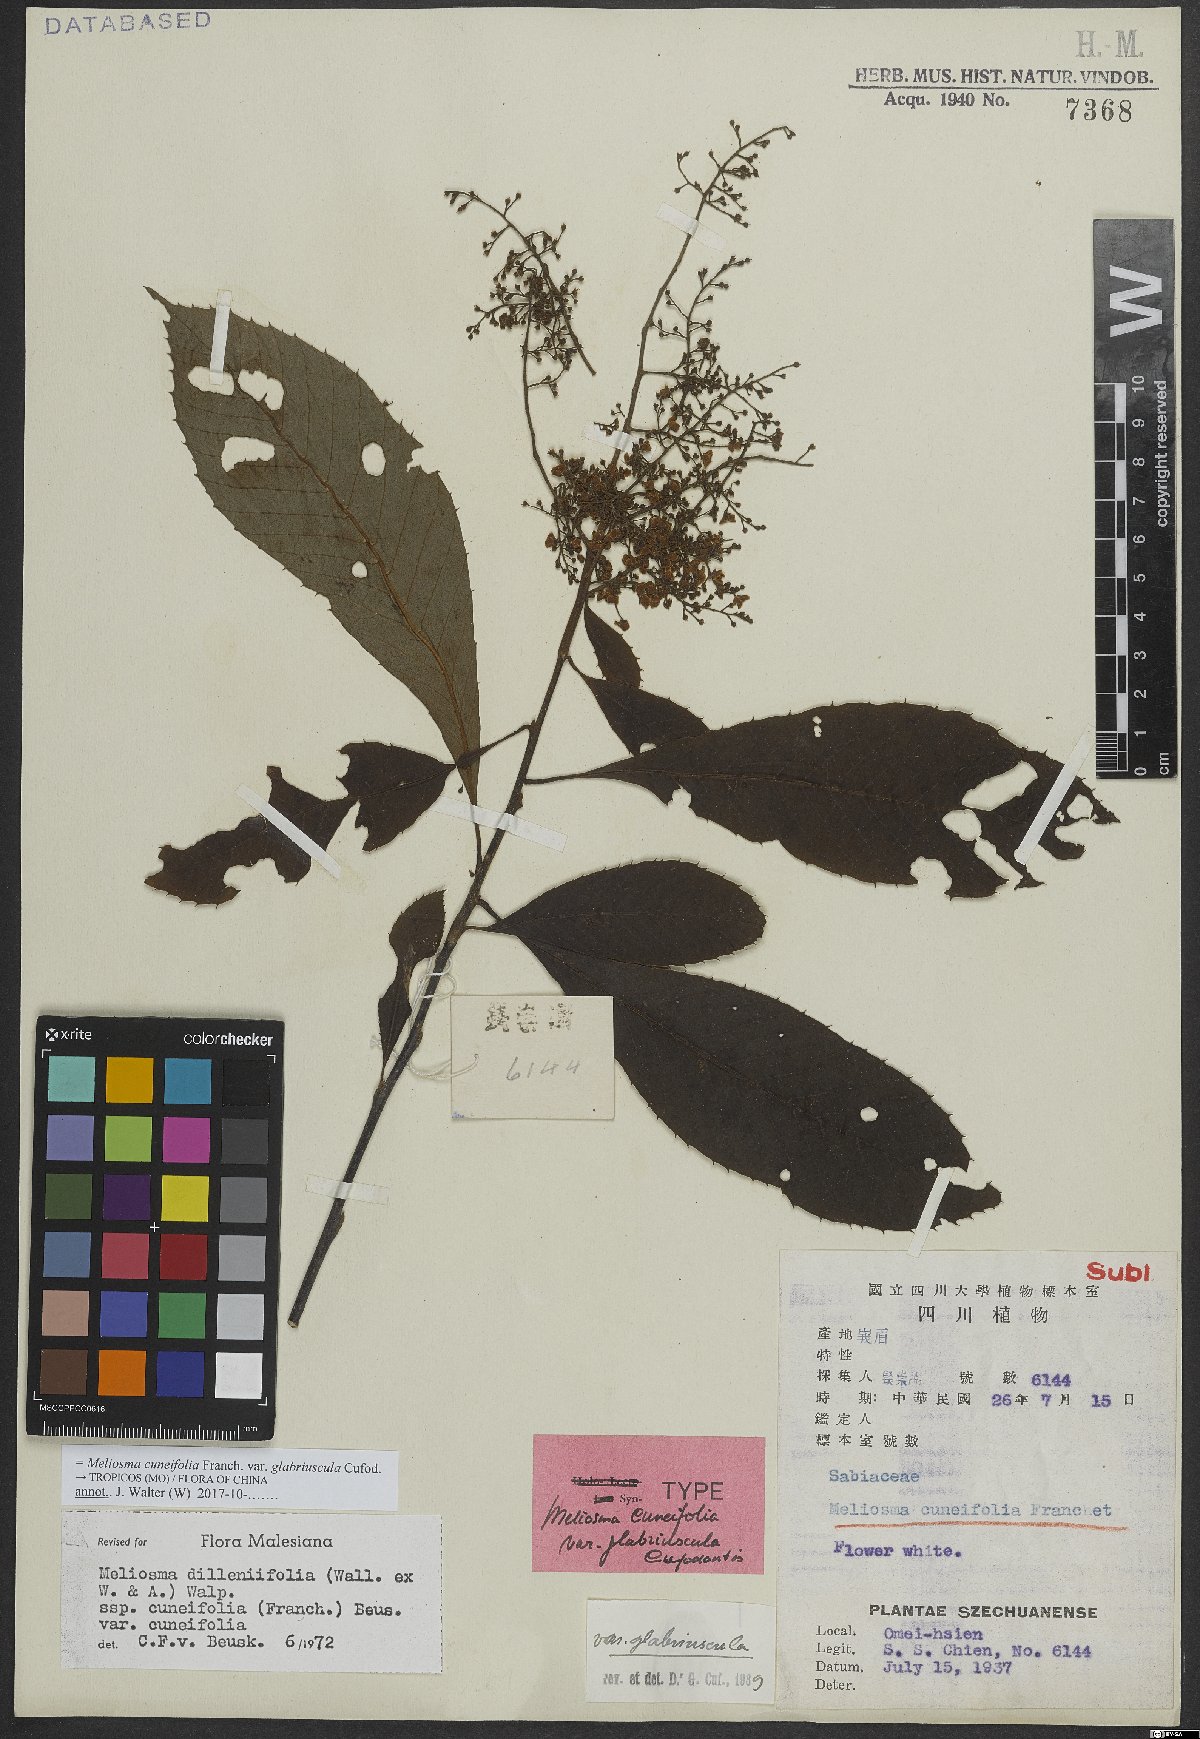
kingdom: Plantae
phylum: Tracheophyta
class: Magnoliopsida
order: Proteales
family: Sabiaceae
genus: Meliosma
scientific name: Meliosma cuneifolia
